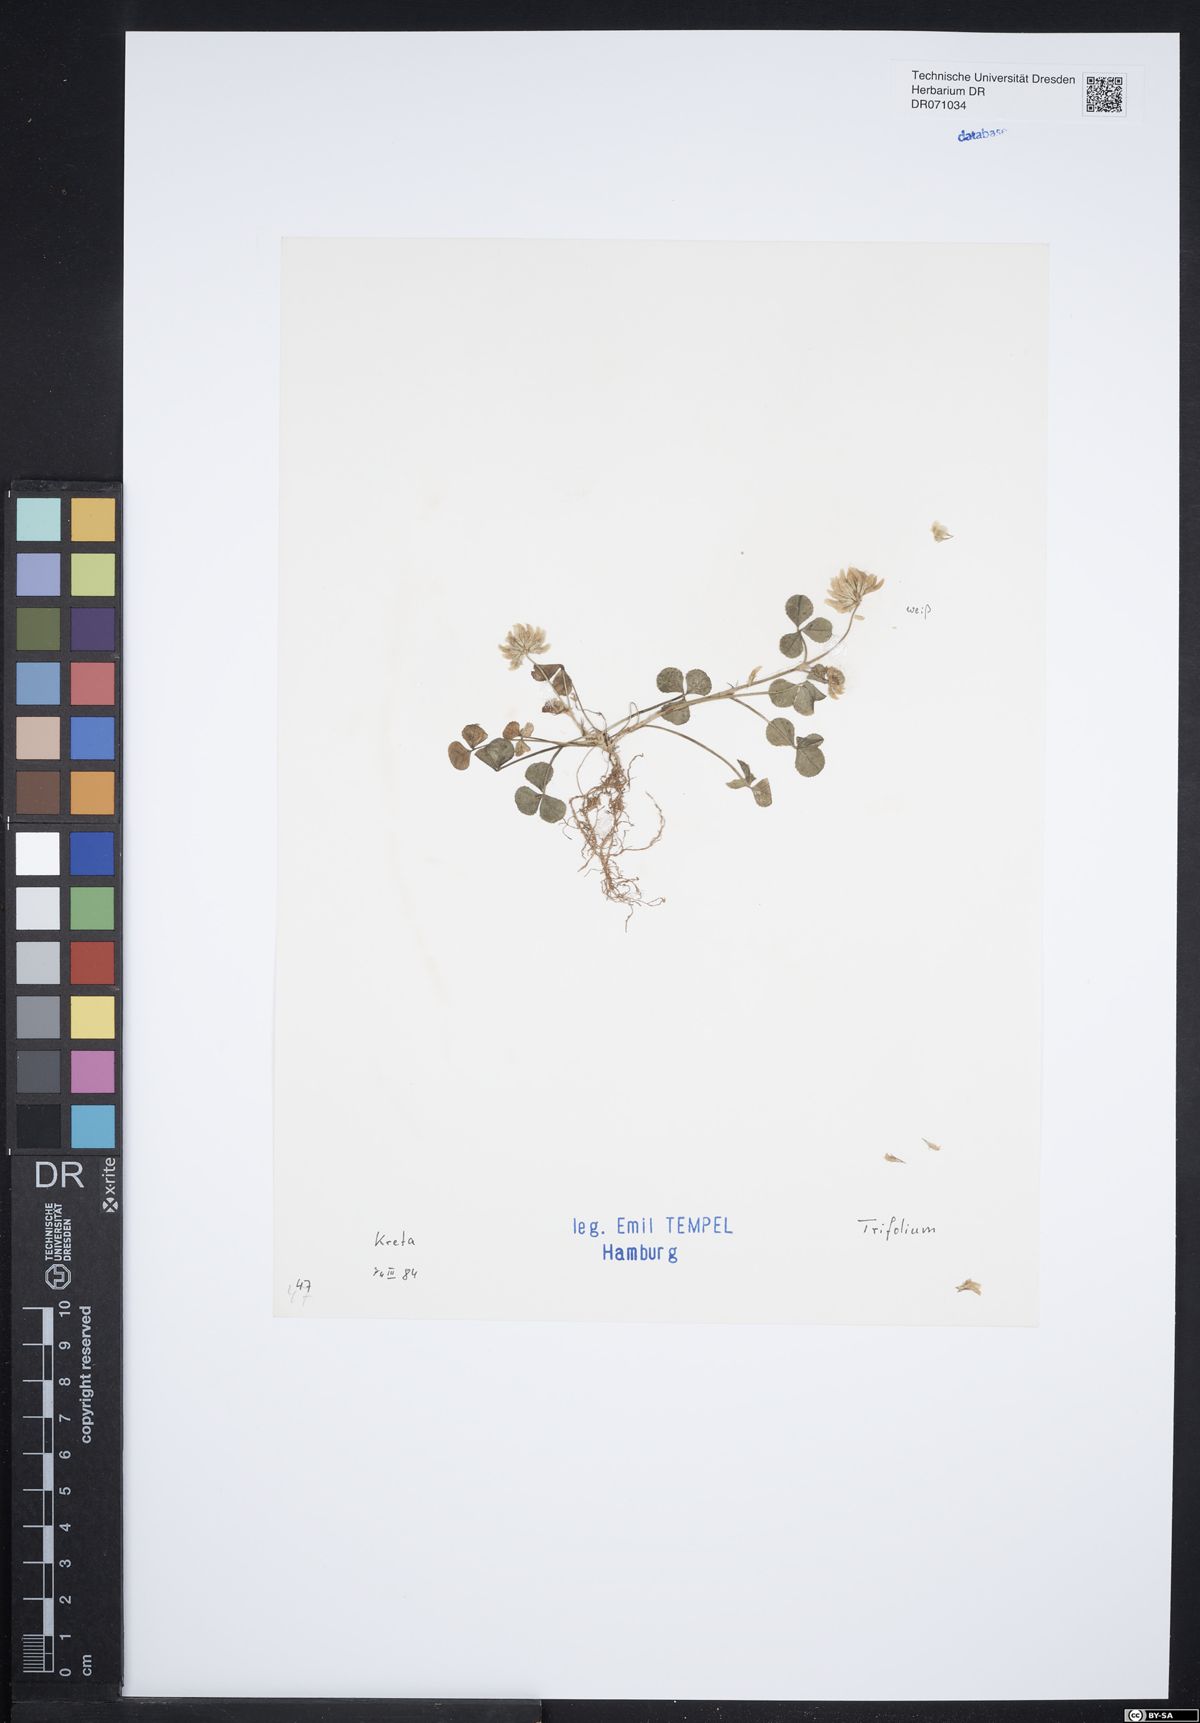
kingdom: Plantae
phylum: Tracheophyta
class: Magnoliopsida
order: Fabales
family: Fabaceae
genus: Trifolium
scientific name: Trifolium
